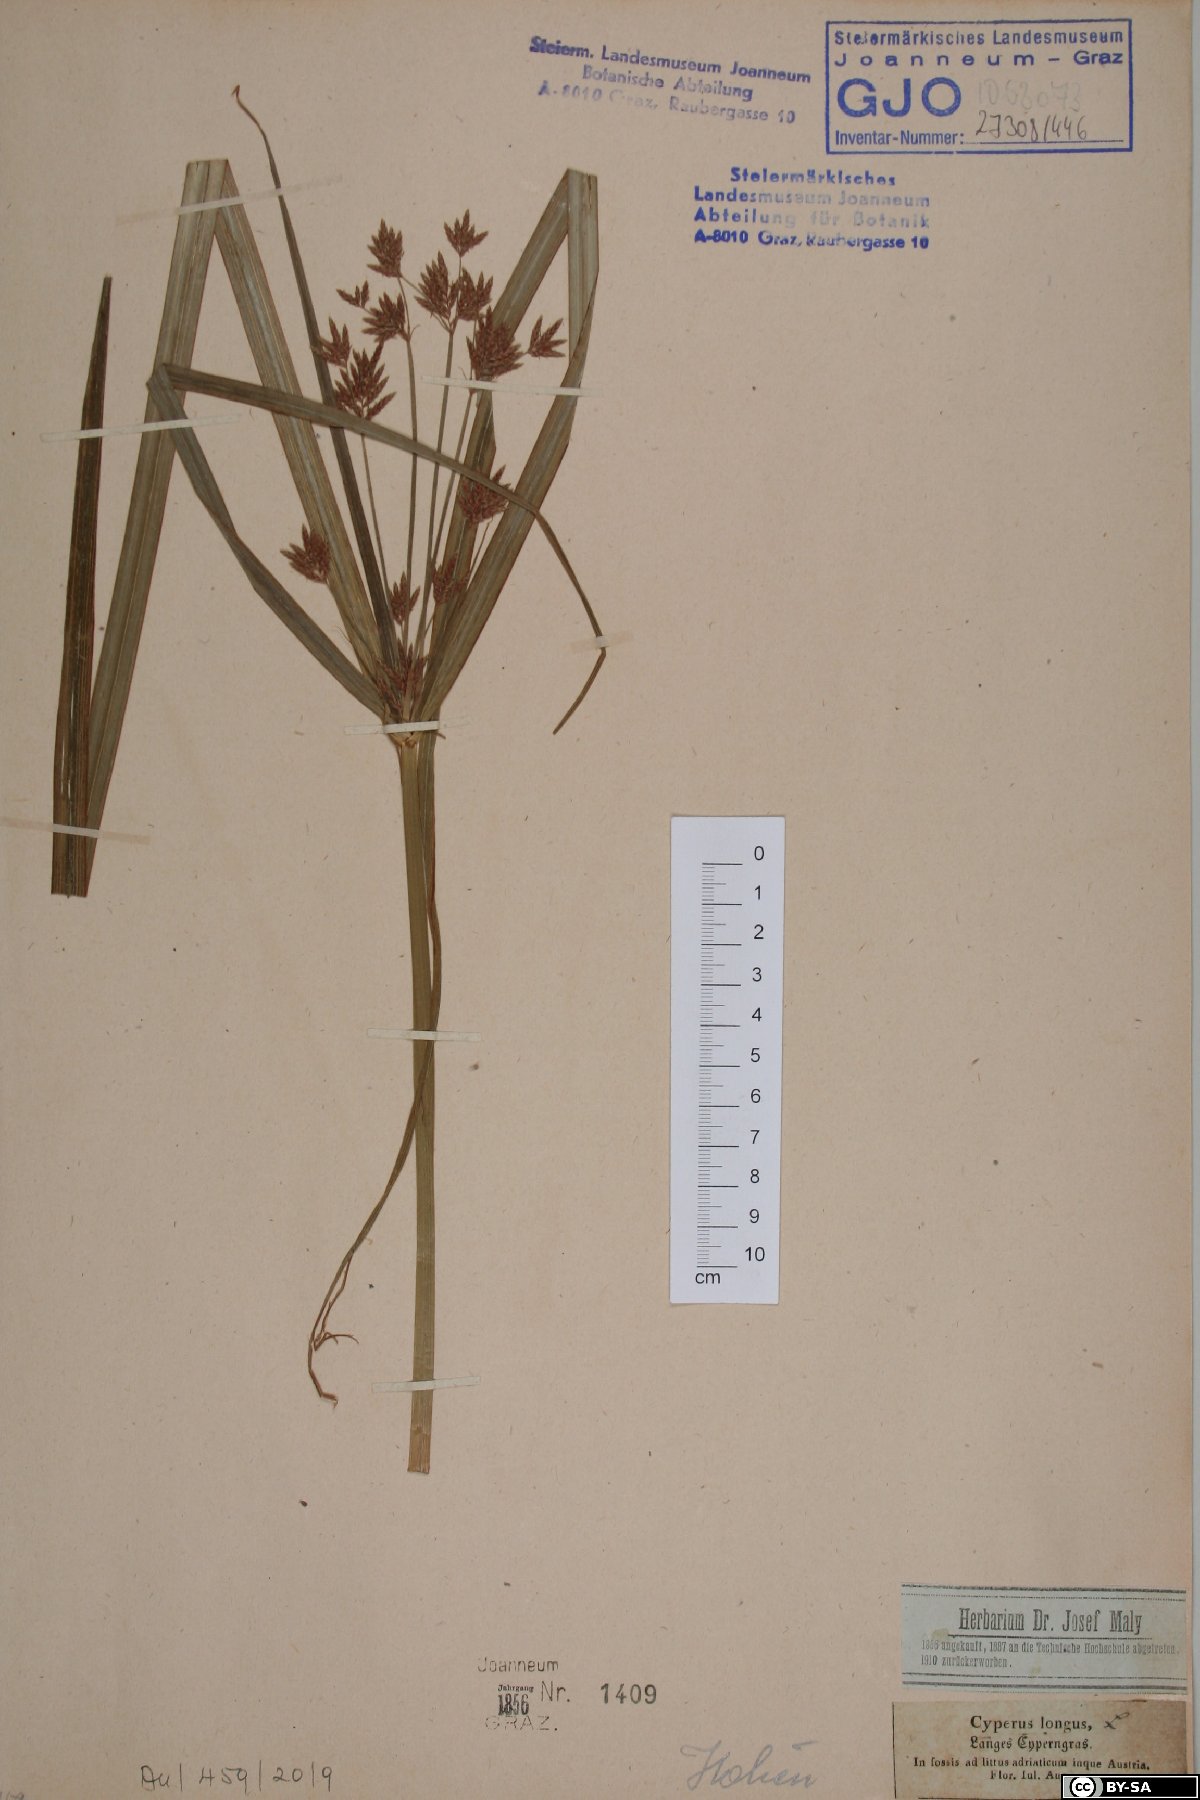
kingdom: Plantae
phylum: Tracheophyta
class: Liliopsida
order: Poales
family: Cyperaceae
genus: Cyperus
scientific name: Cyperus longus
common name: Galingale
